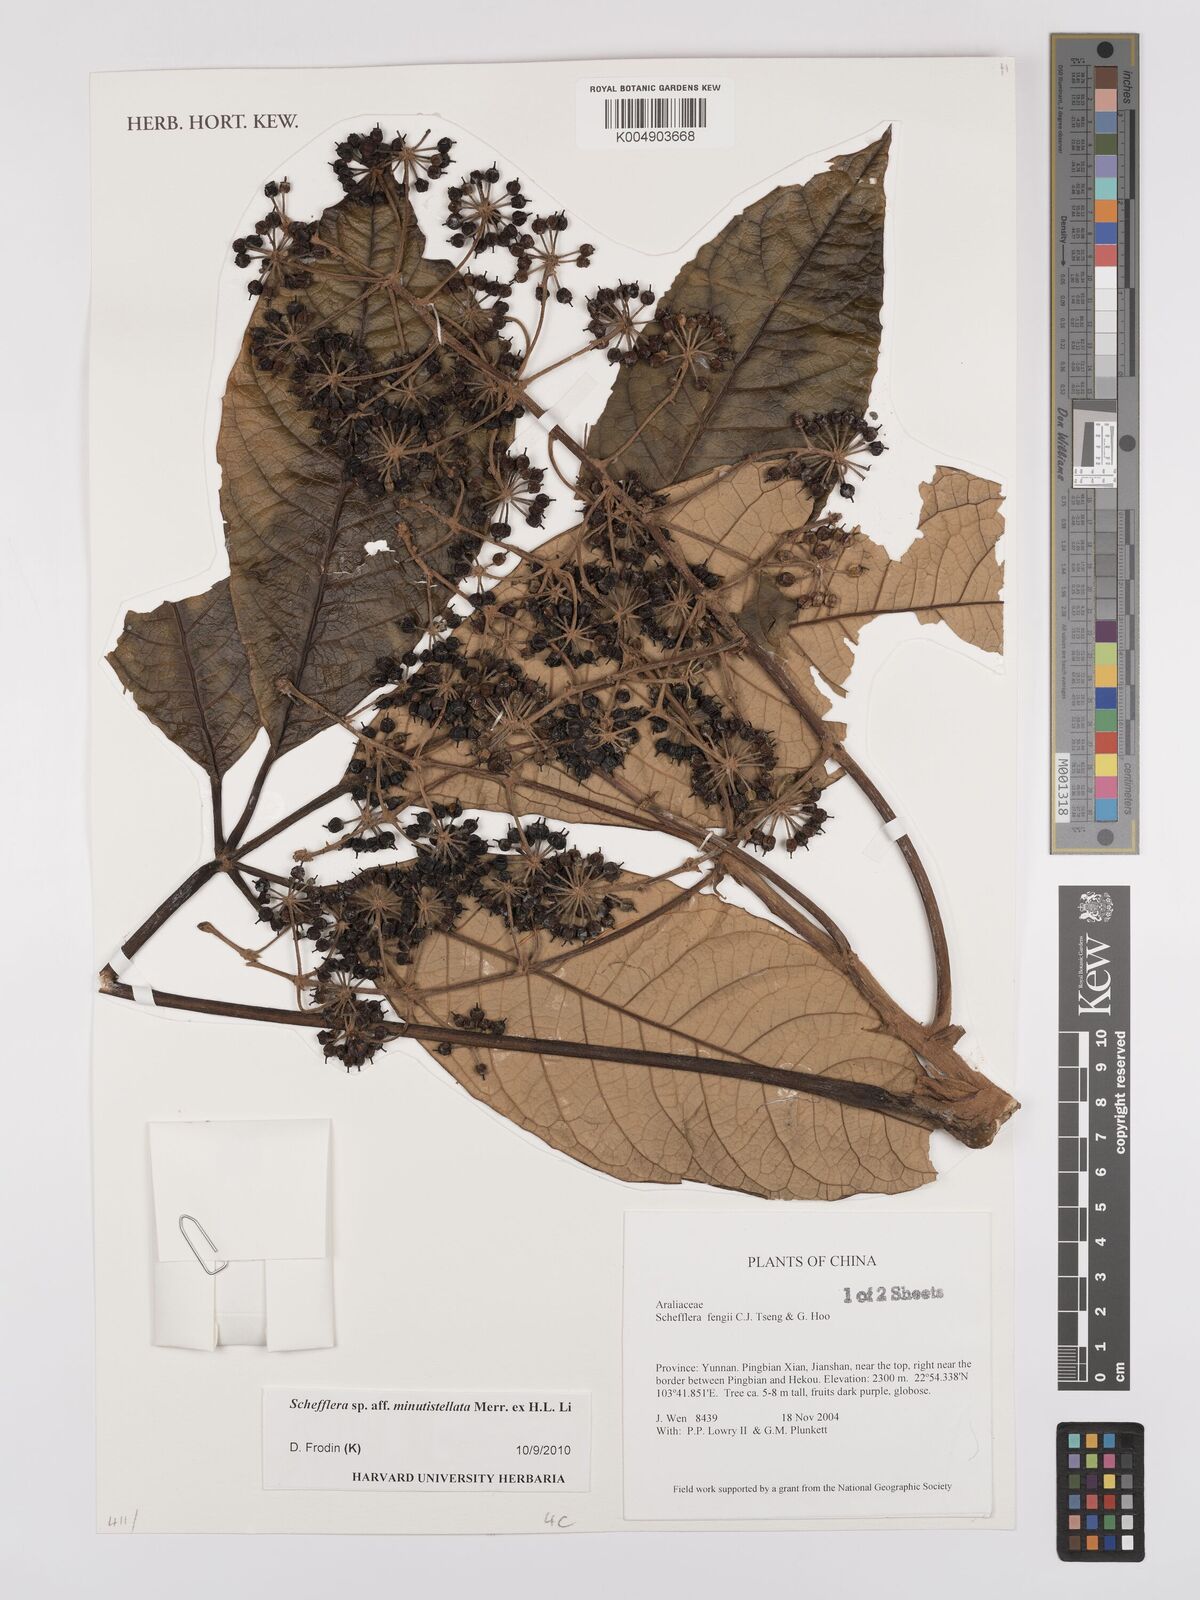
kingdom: Plantae
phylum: Tracheophyta
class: Magnoliopsida
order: Apiales
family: Araliaceae
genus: Heptapleurum
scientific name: Heptapleurum minutistellatum
